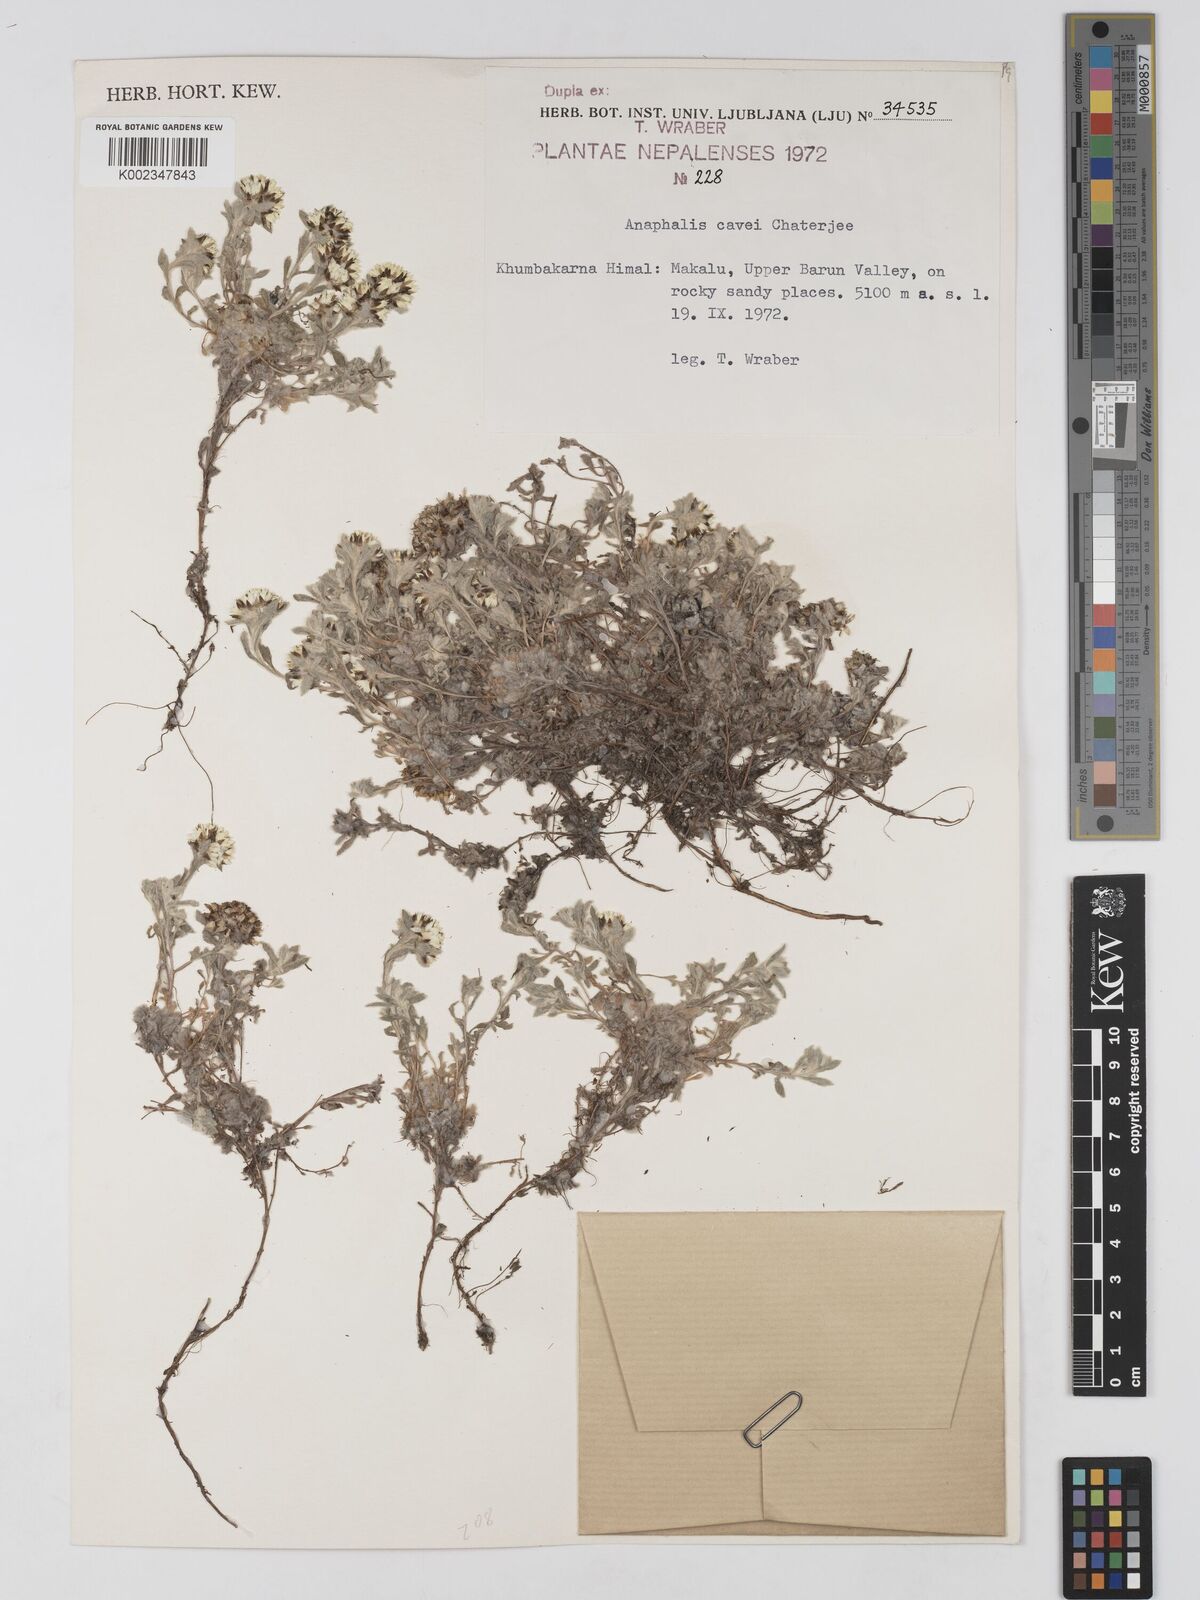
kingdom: Plantae
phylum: Tracheophyta
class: Magnoliopsida
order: Asterales
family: Asteraceae
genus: Anaphalis
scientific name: Anaphalis cavei
